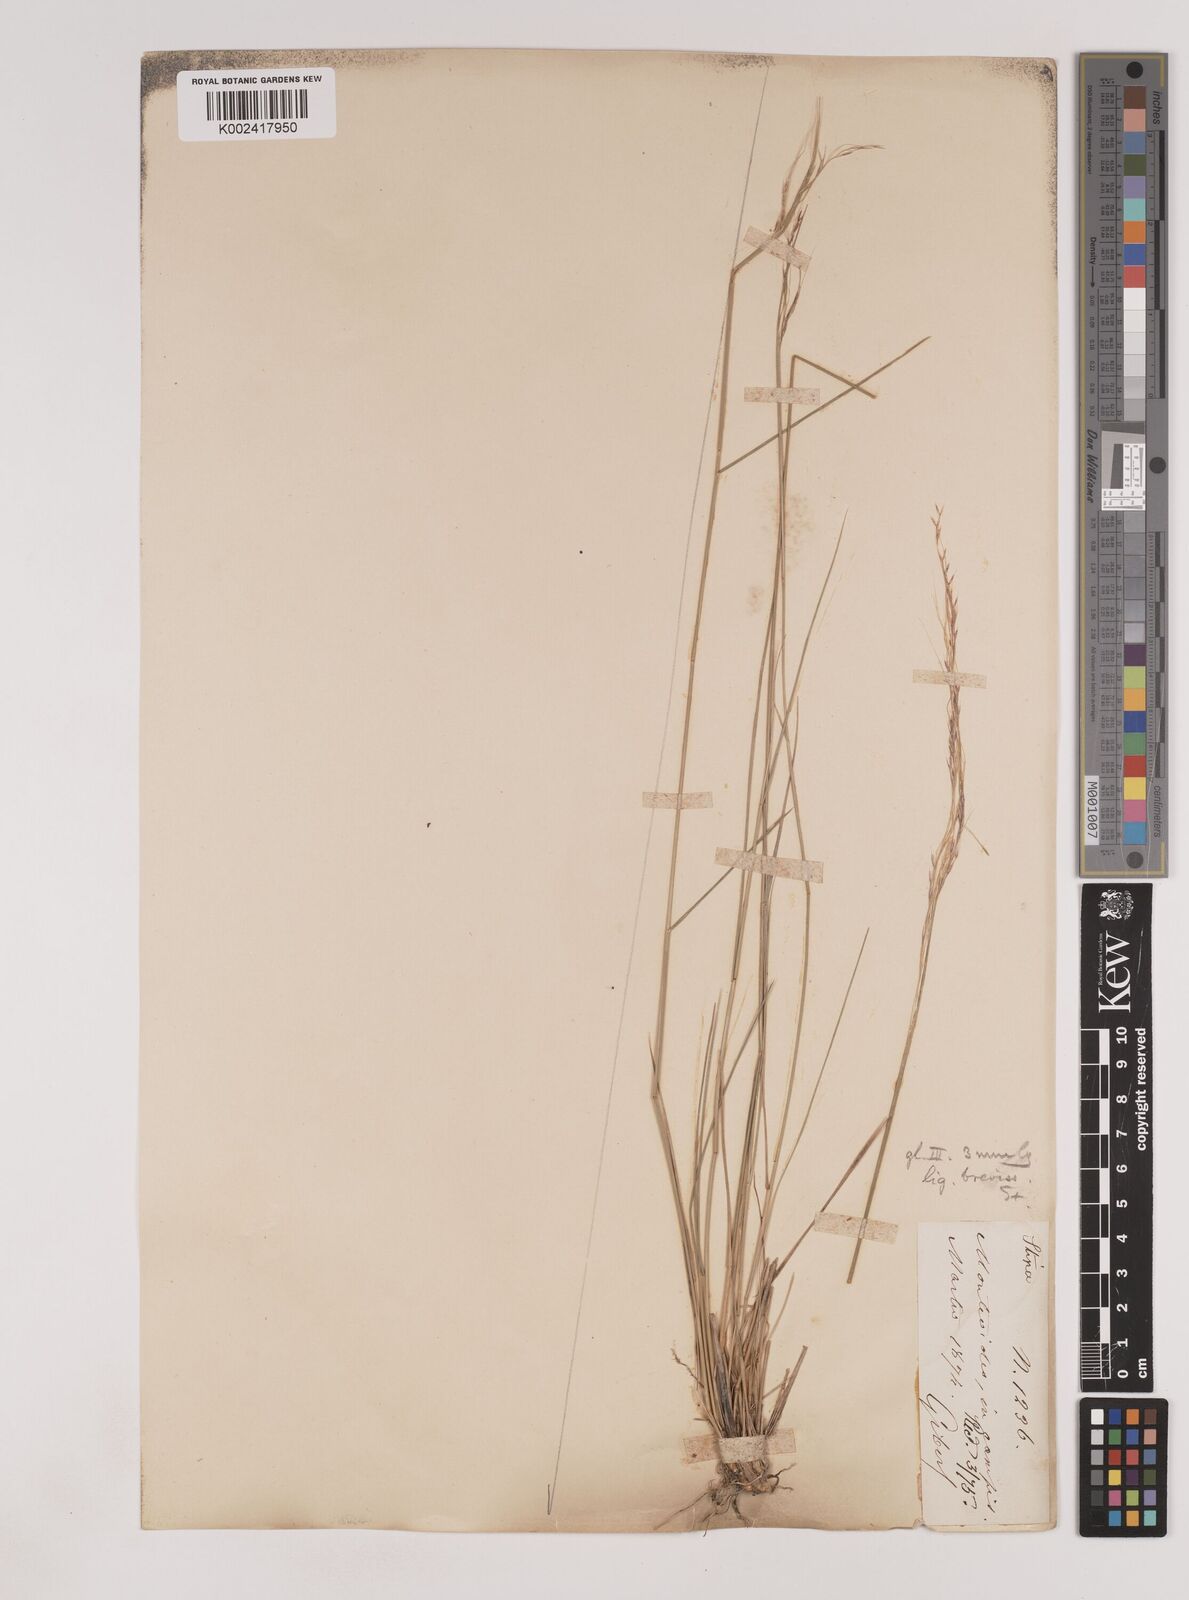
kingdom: Plantae
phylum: Tracheophyta
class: Liliopsida
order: Poales
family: Poaceae
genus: Nassella
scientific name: Nassella philippii
